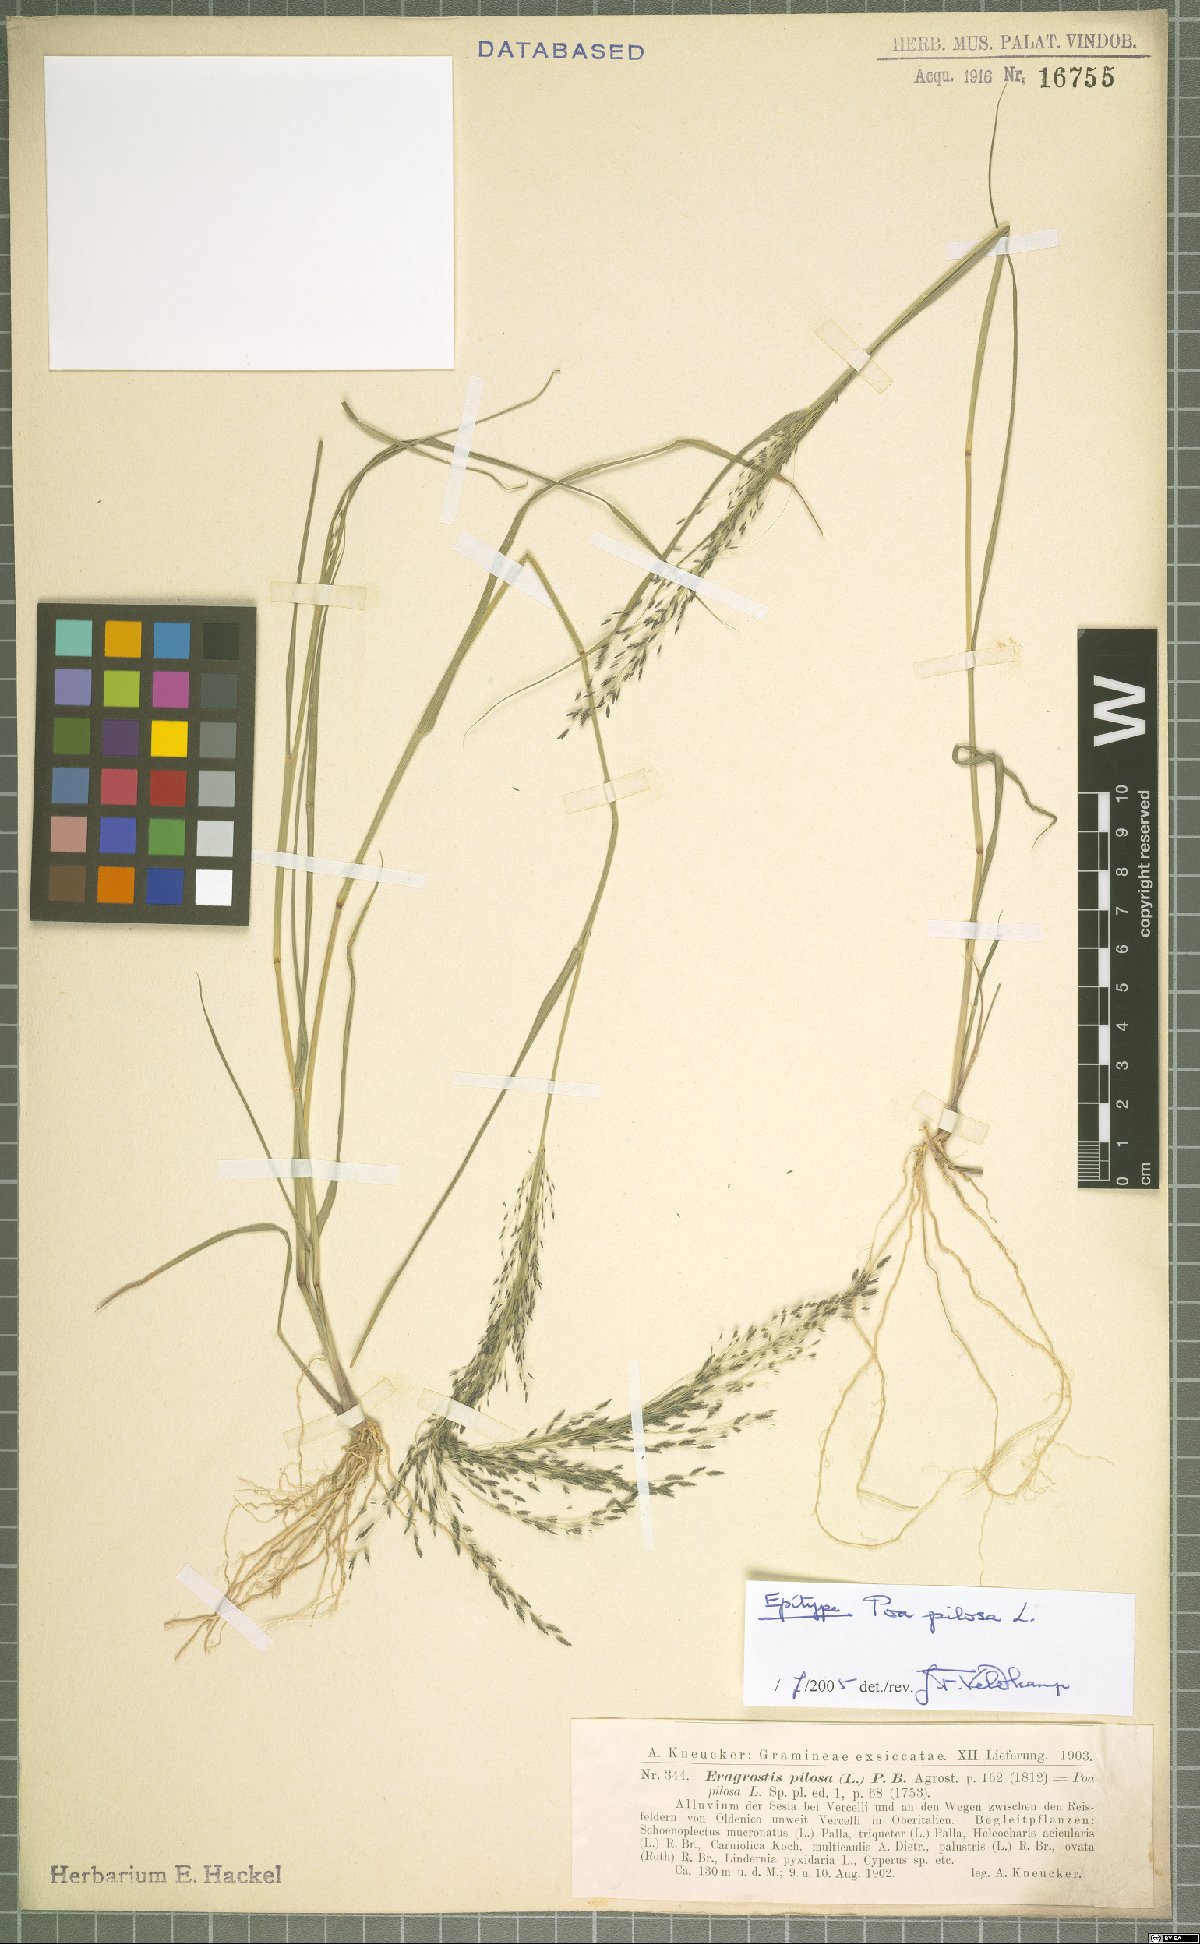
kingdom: Plantae
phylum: Tracheophyta
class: Liliopsida
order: Poales
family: Poaceae
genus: Eragrostis
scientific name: Eragrostis pilosa
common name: Indian lovegrass
